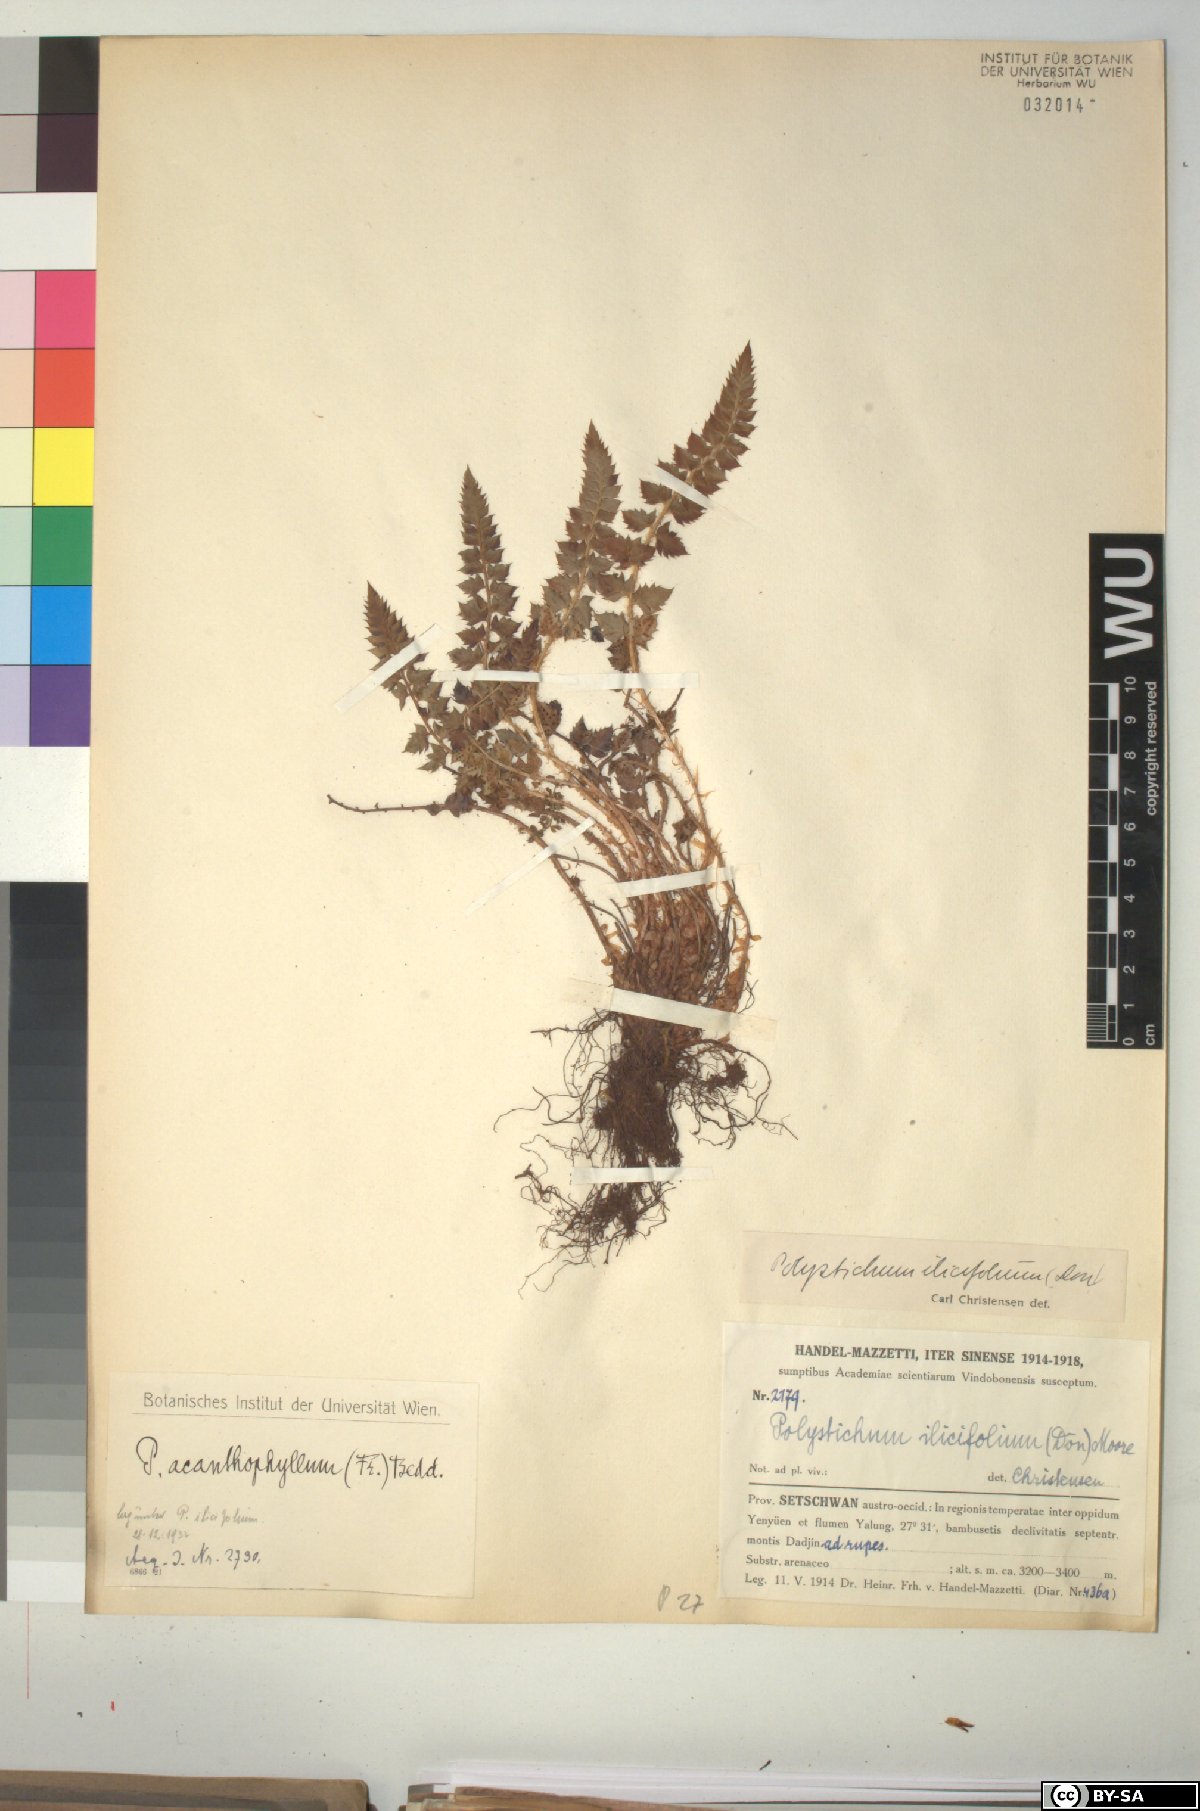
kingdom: Plantae
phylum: Tracheophyta
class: Polypodiopsida
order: Polypodiales
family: Dryopteridaceae
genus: Polystichum
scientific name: Polystichum stimulans
